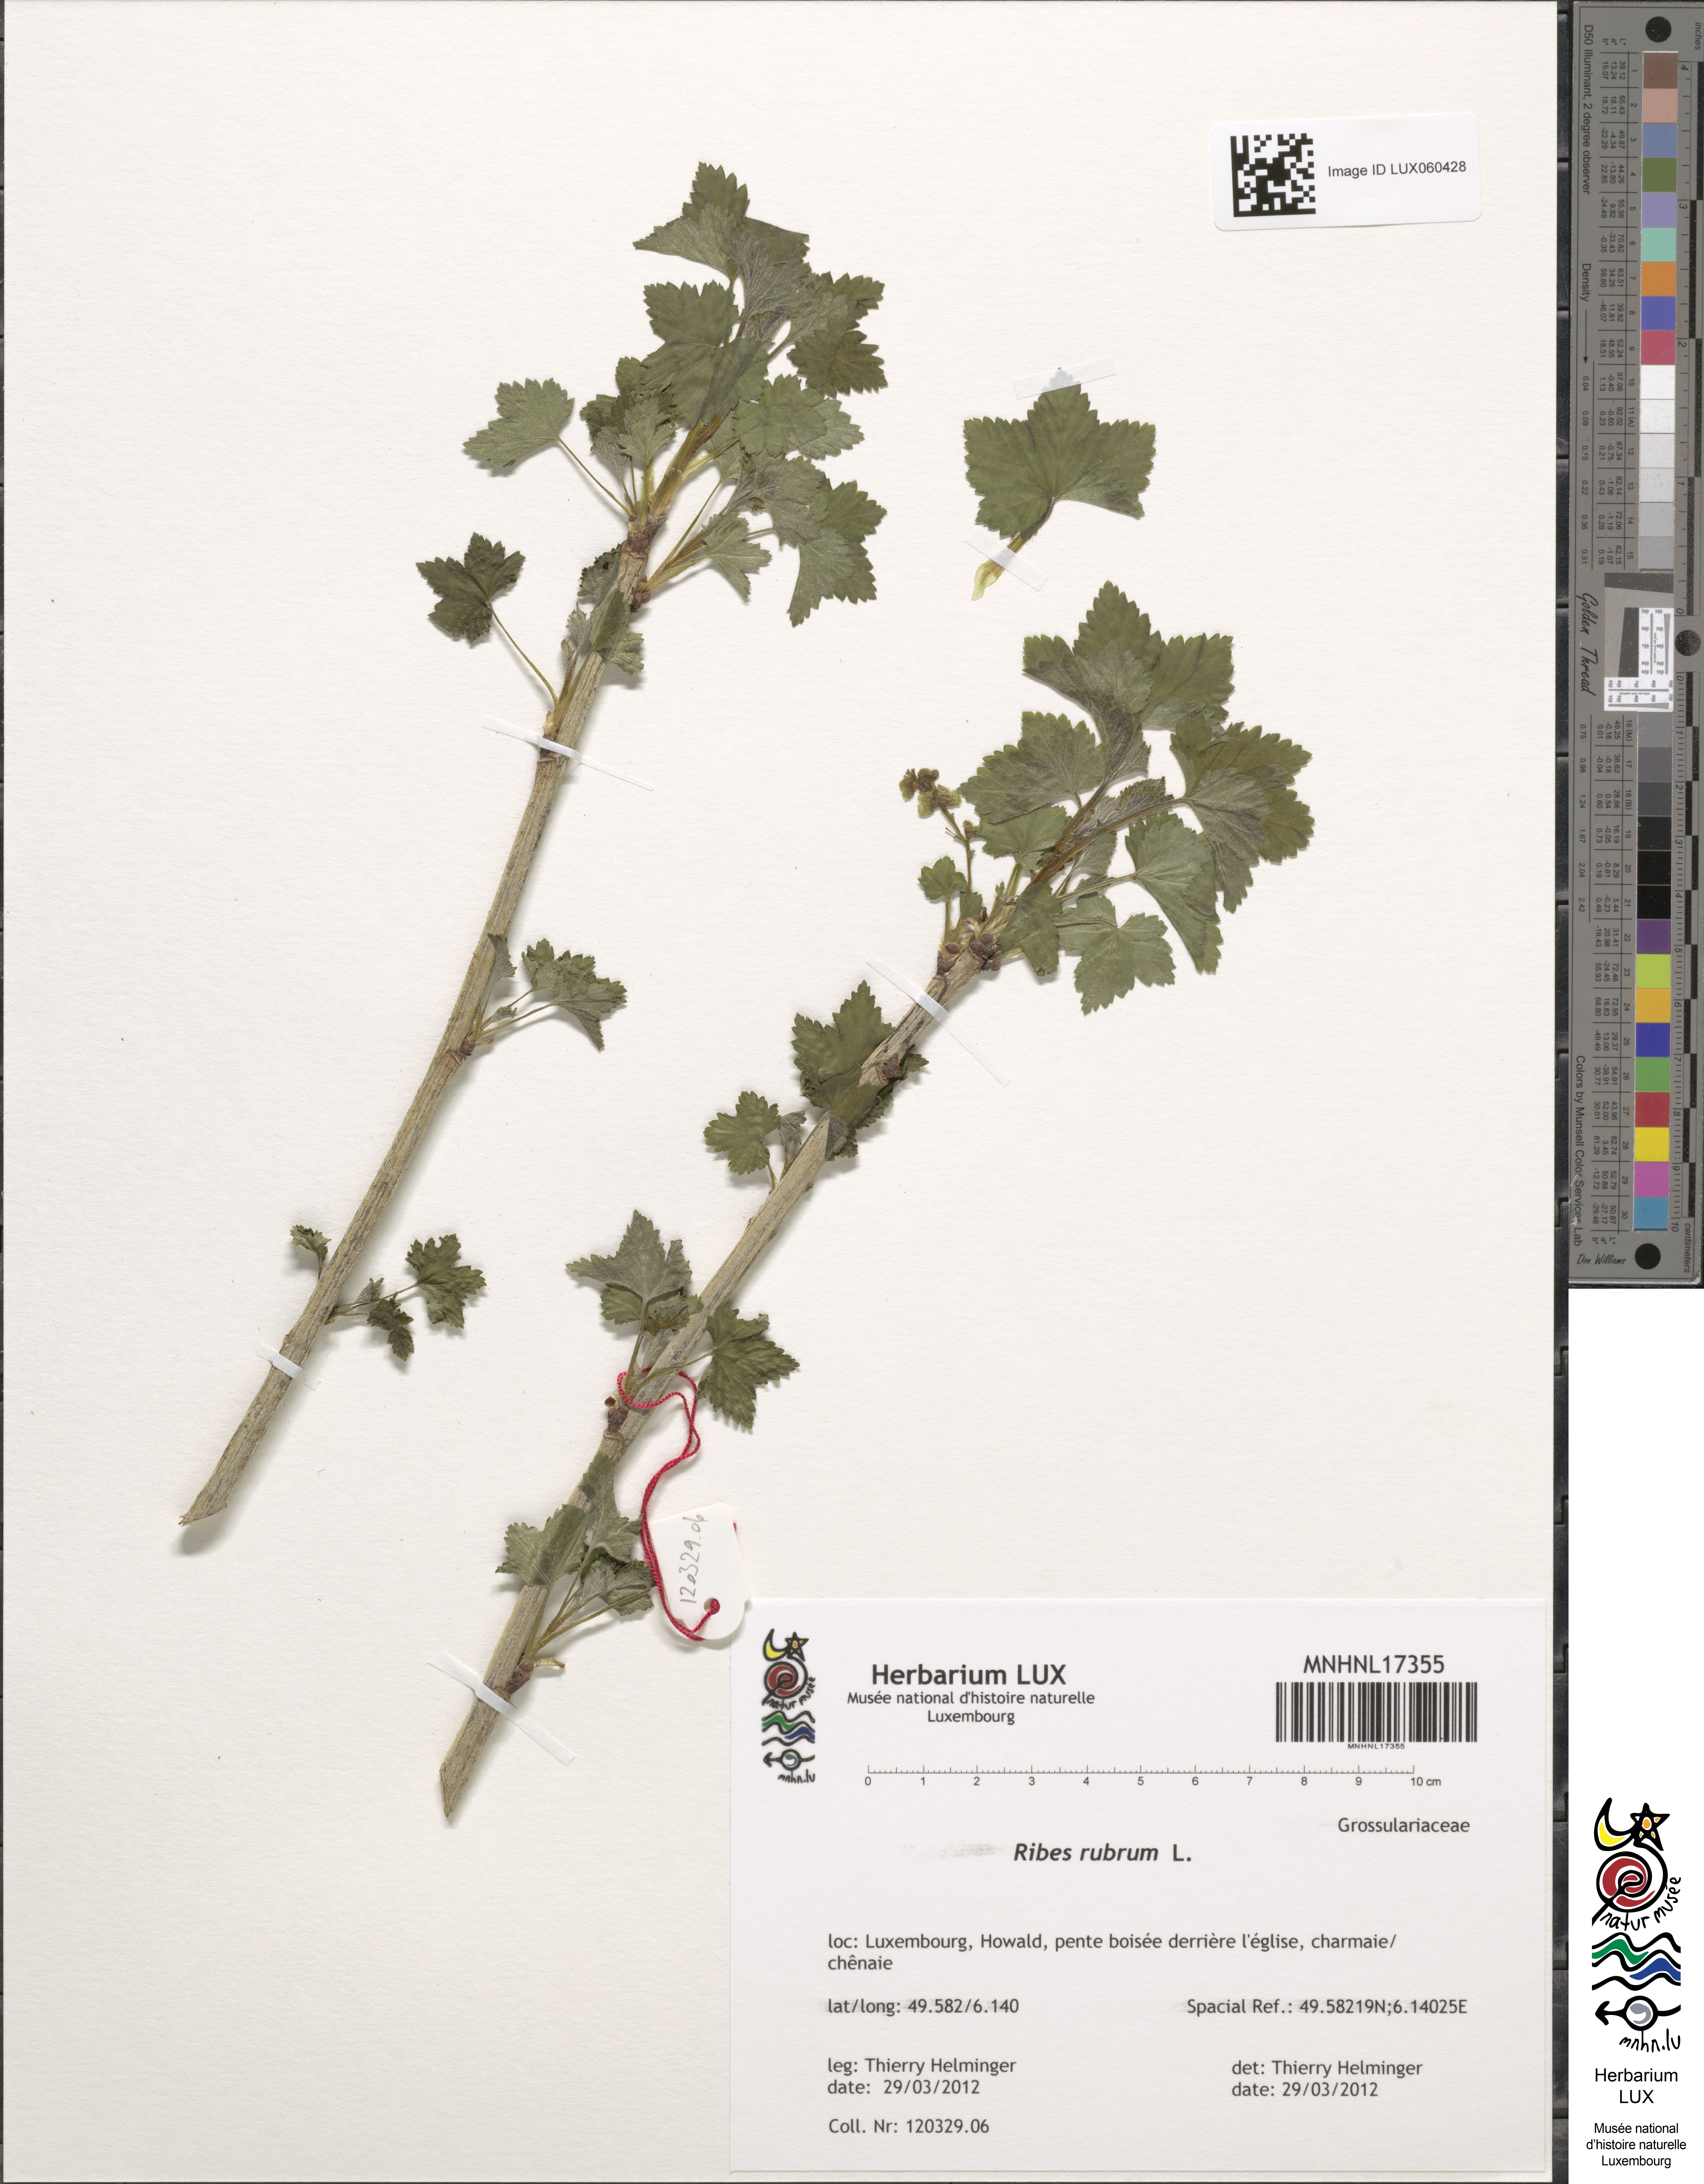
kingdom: Plantae
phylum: Tracheophyta
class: Magnoliopsida
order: Saxifragales
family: Grossulariaceae
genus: Ribes
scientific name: Ribes rubrum
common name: Red currant
